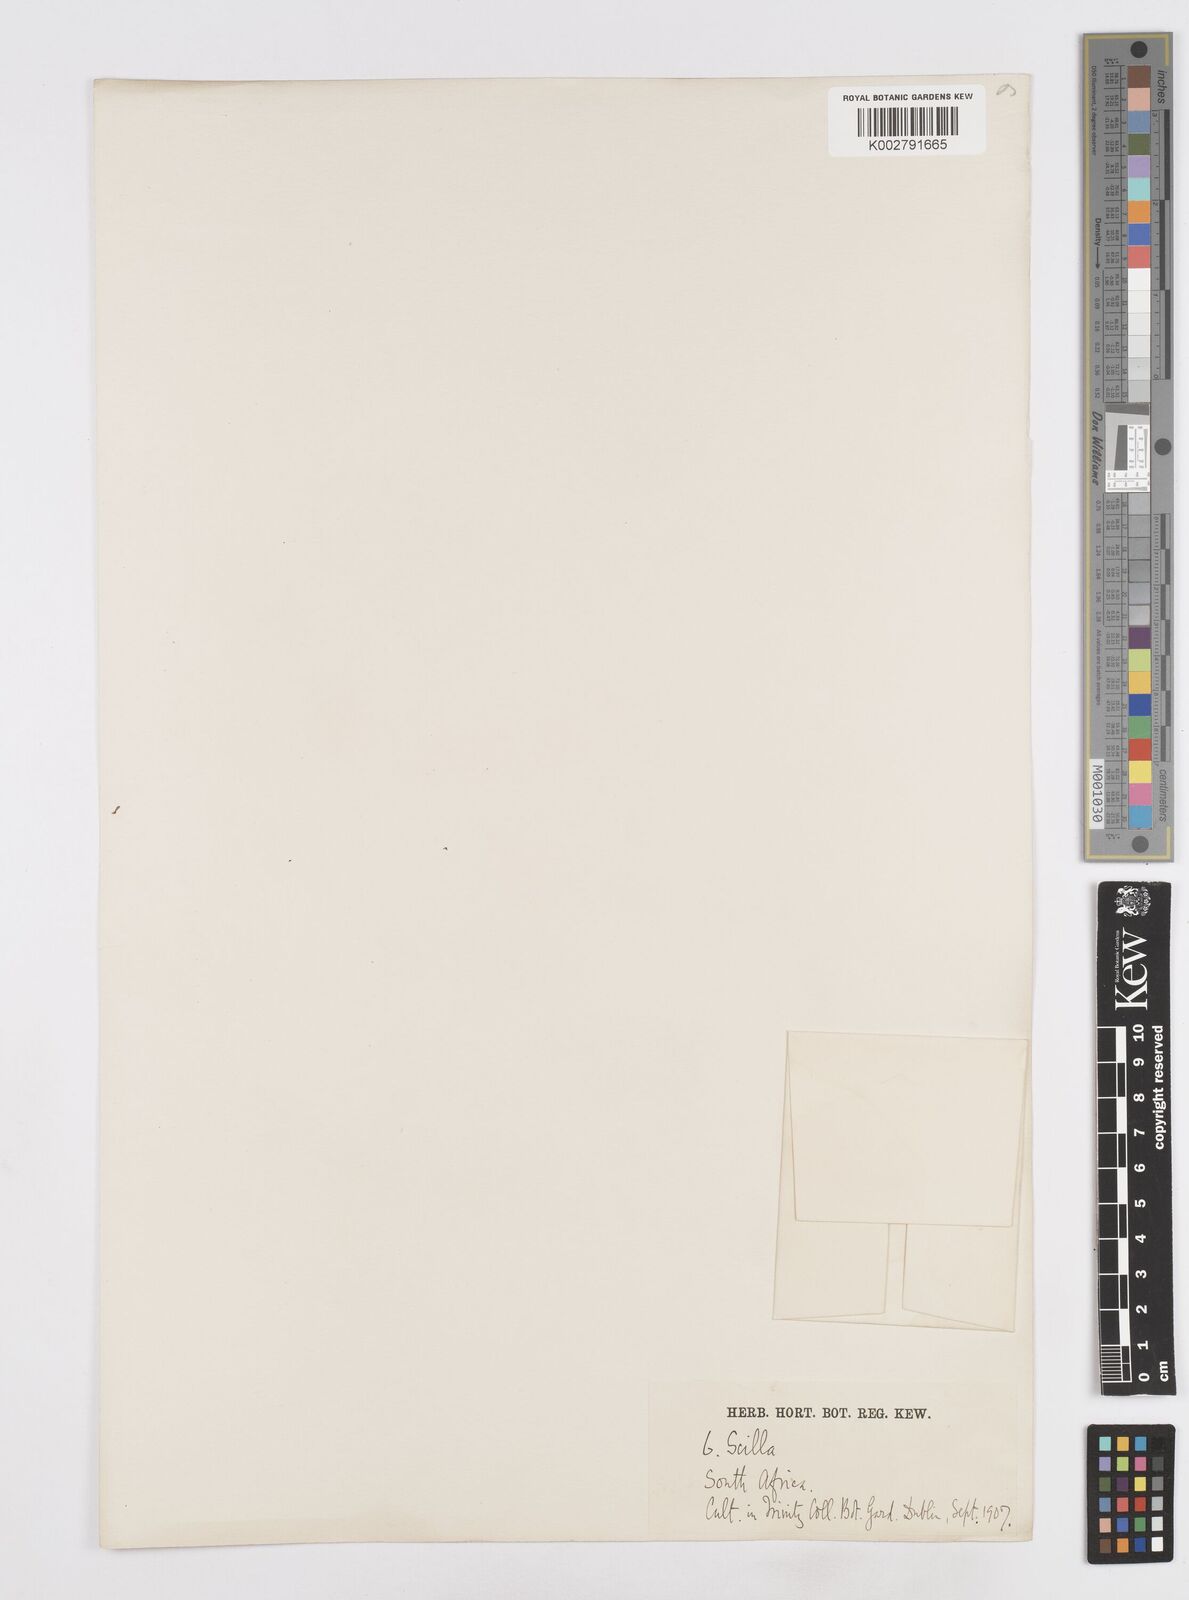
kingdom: Plantae
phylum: Tracheophyta
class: Liliopsida
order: Asparagales
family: Asparagaceae
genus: Scilla
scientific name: Scilla
